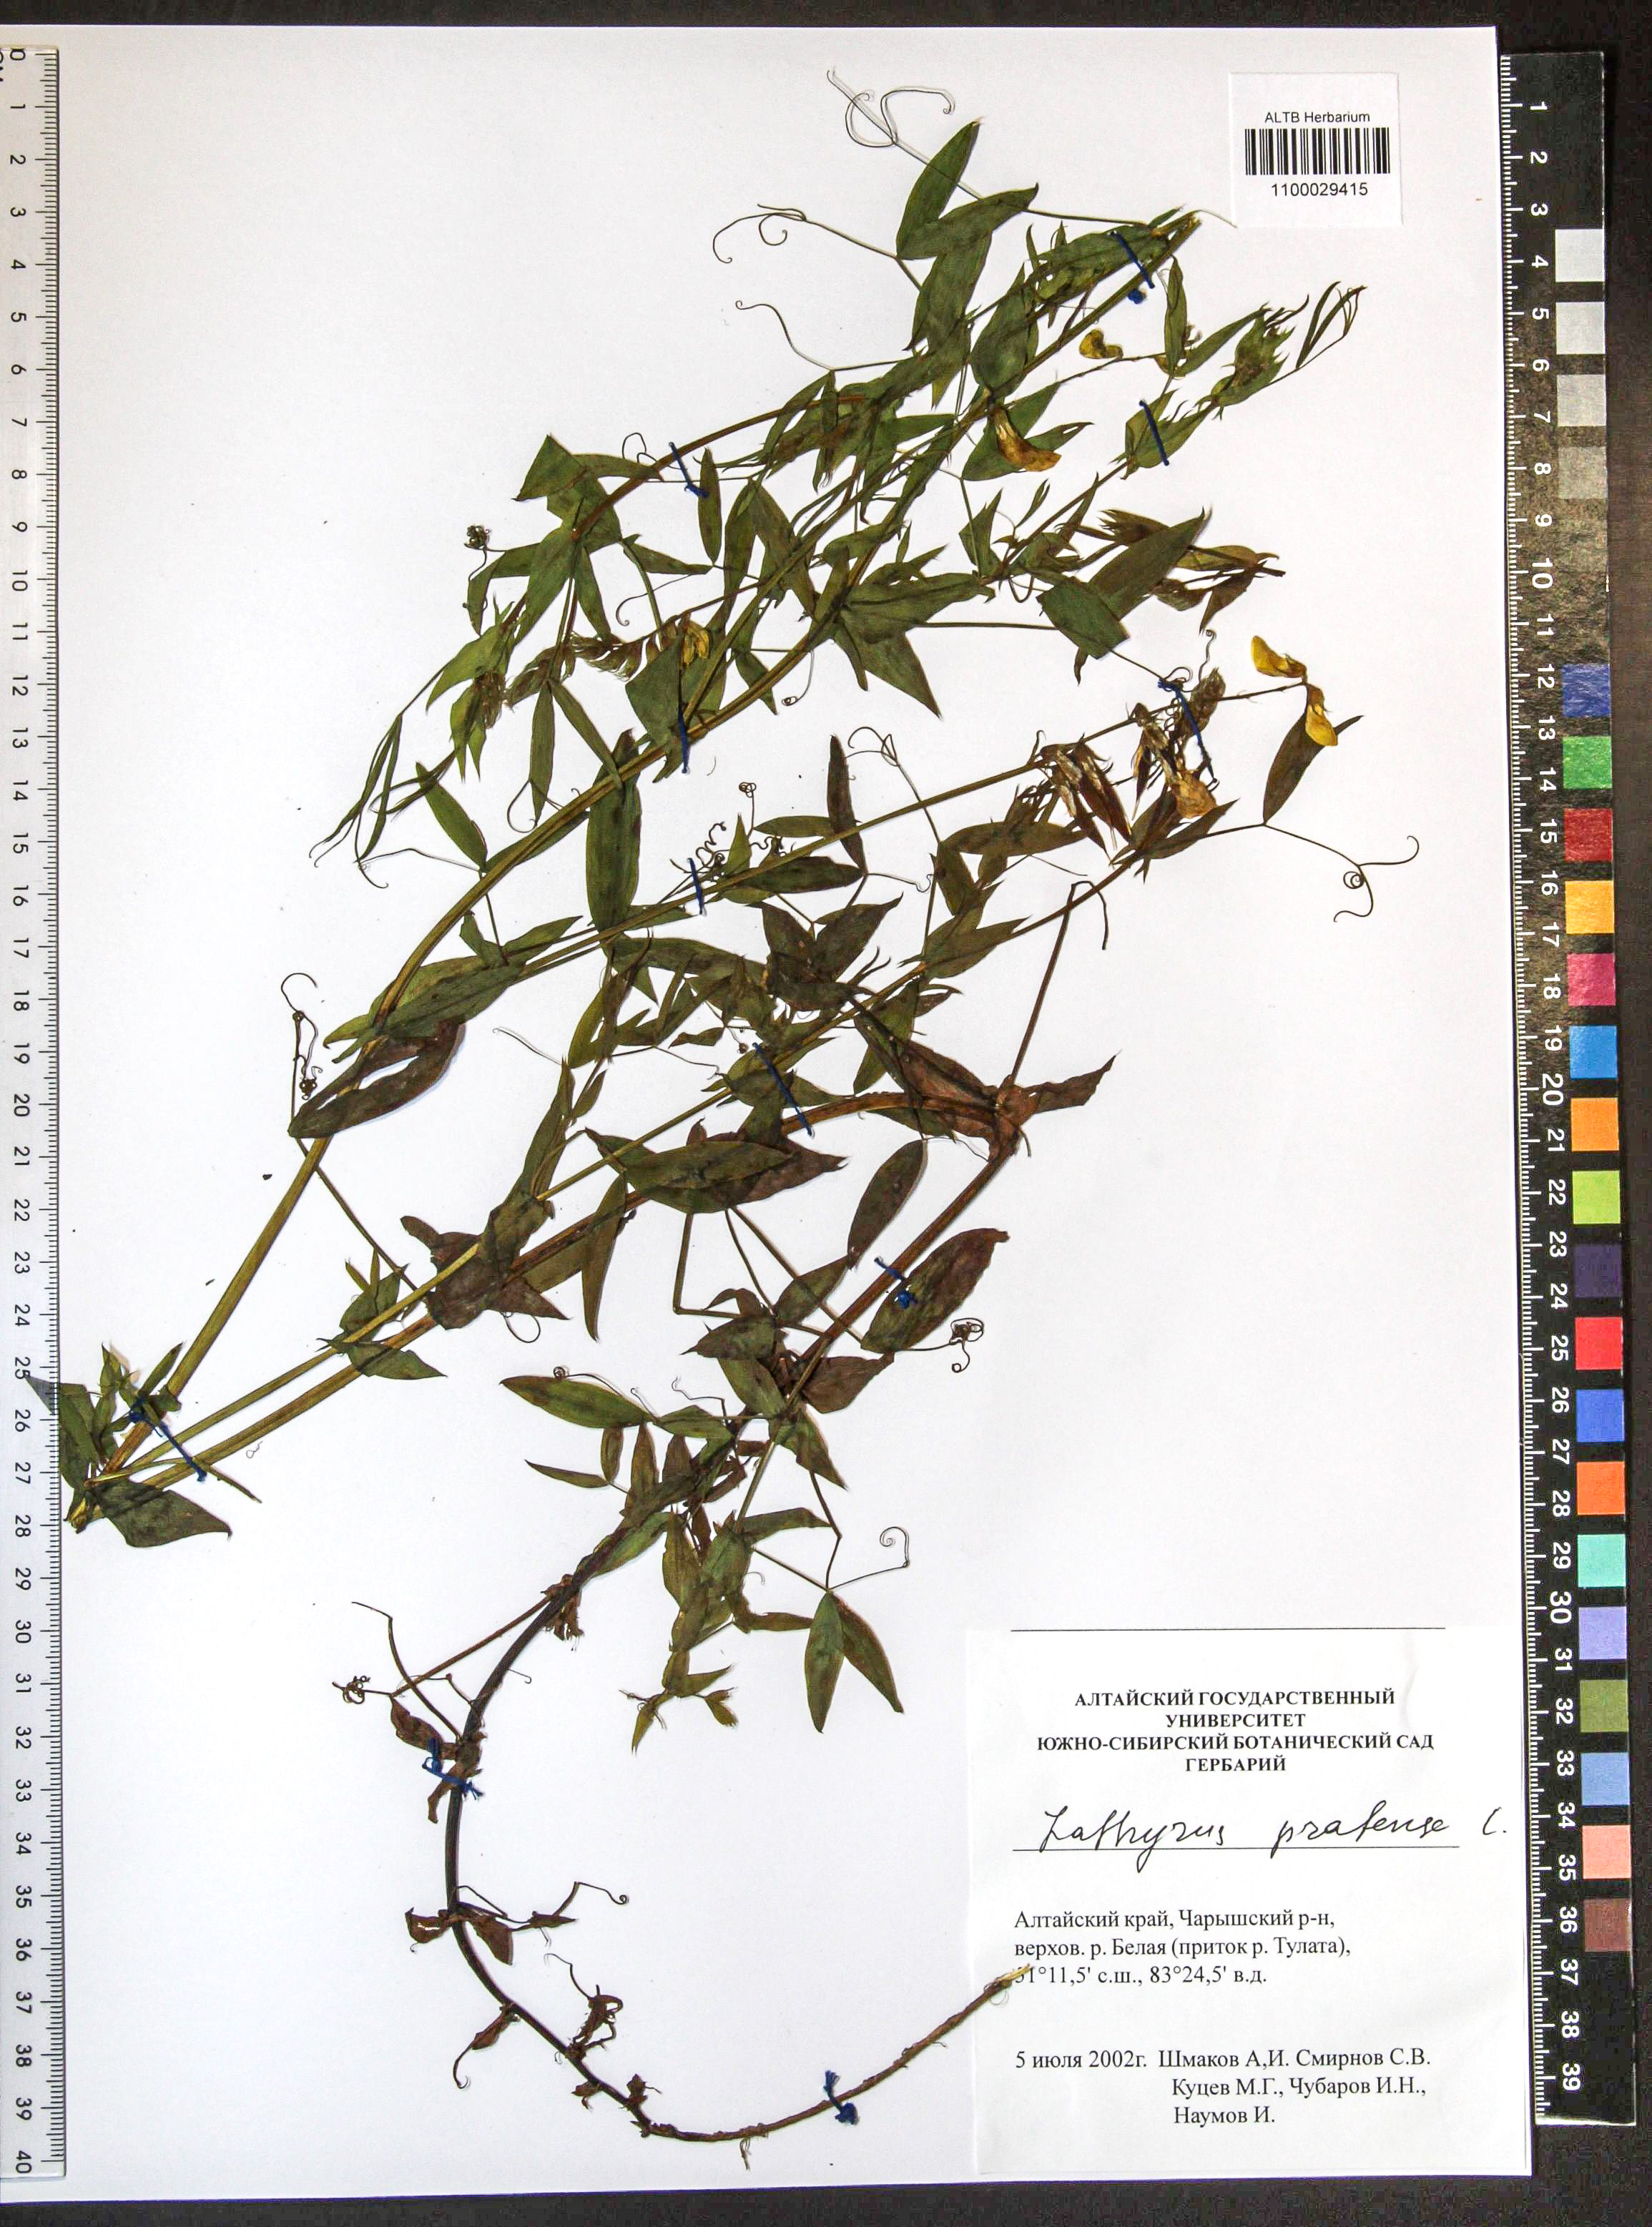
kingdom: Plantae
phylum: Tracheophyta
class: Magnoliopsida
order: Fabales
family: Fabaceae
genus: Lathyrus
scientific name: Lathyrus pratensis
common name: Meadow vetchling
